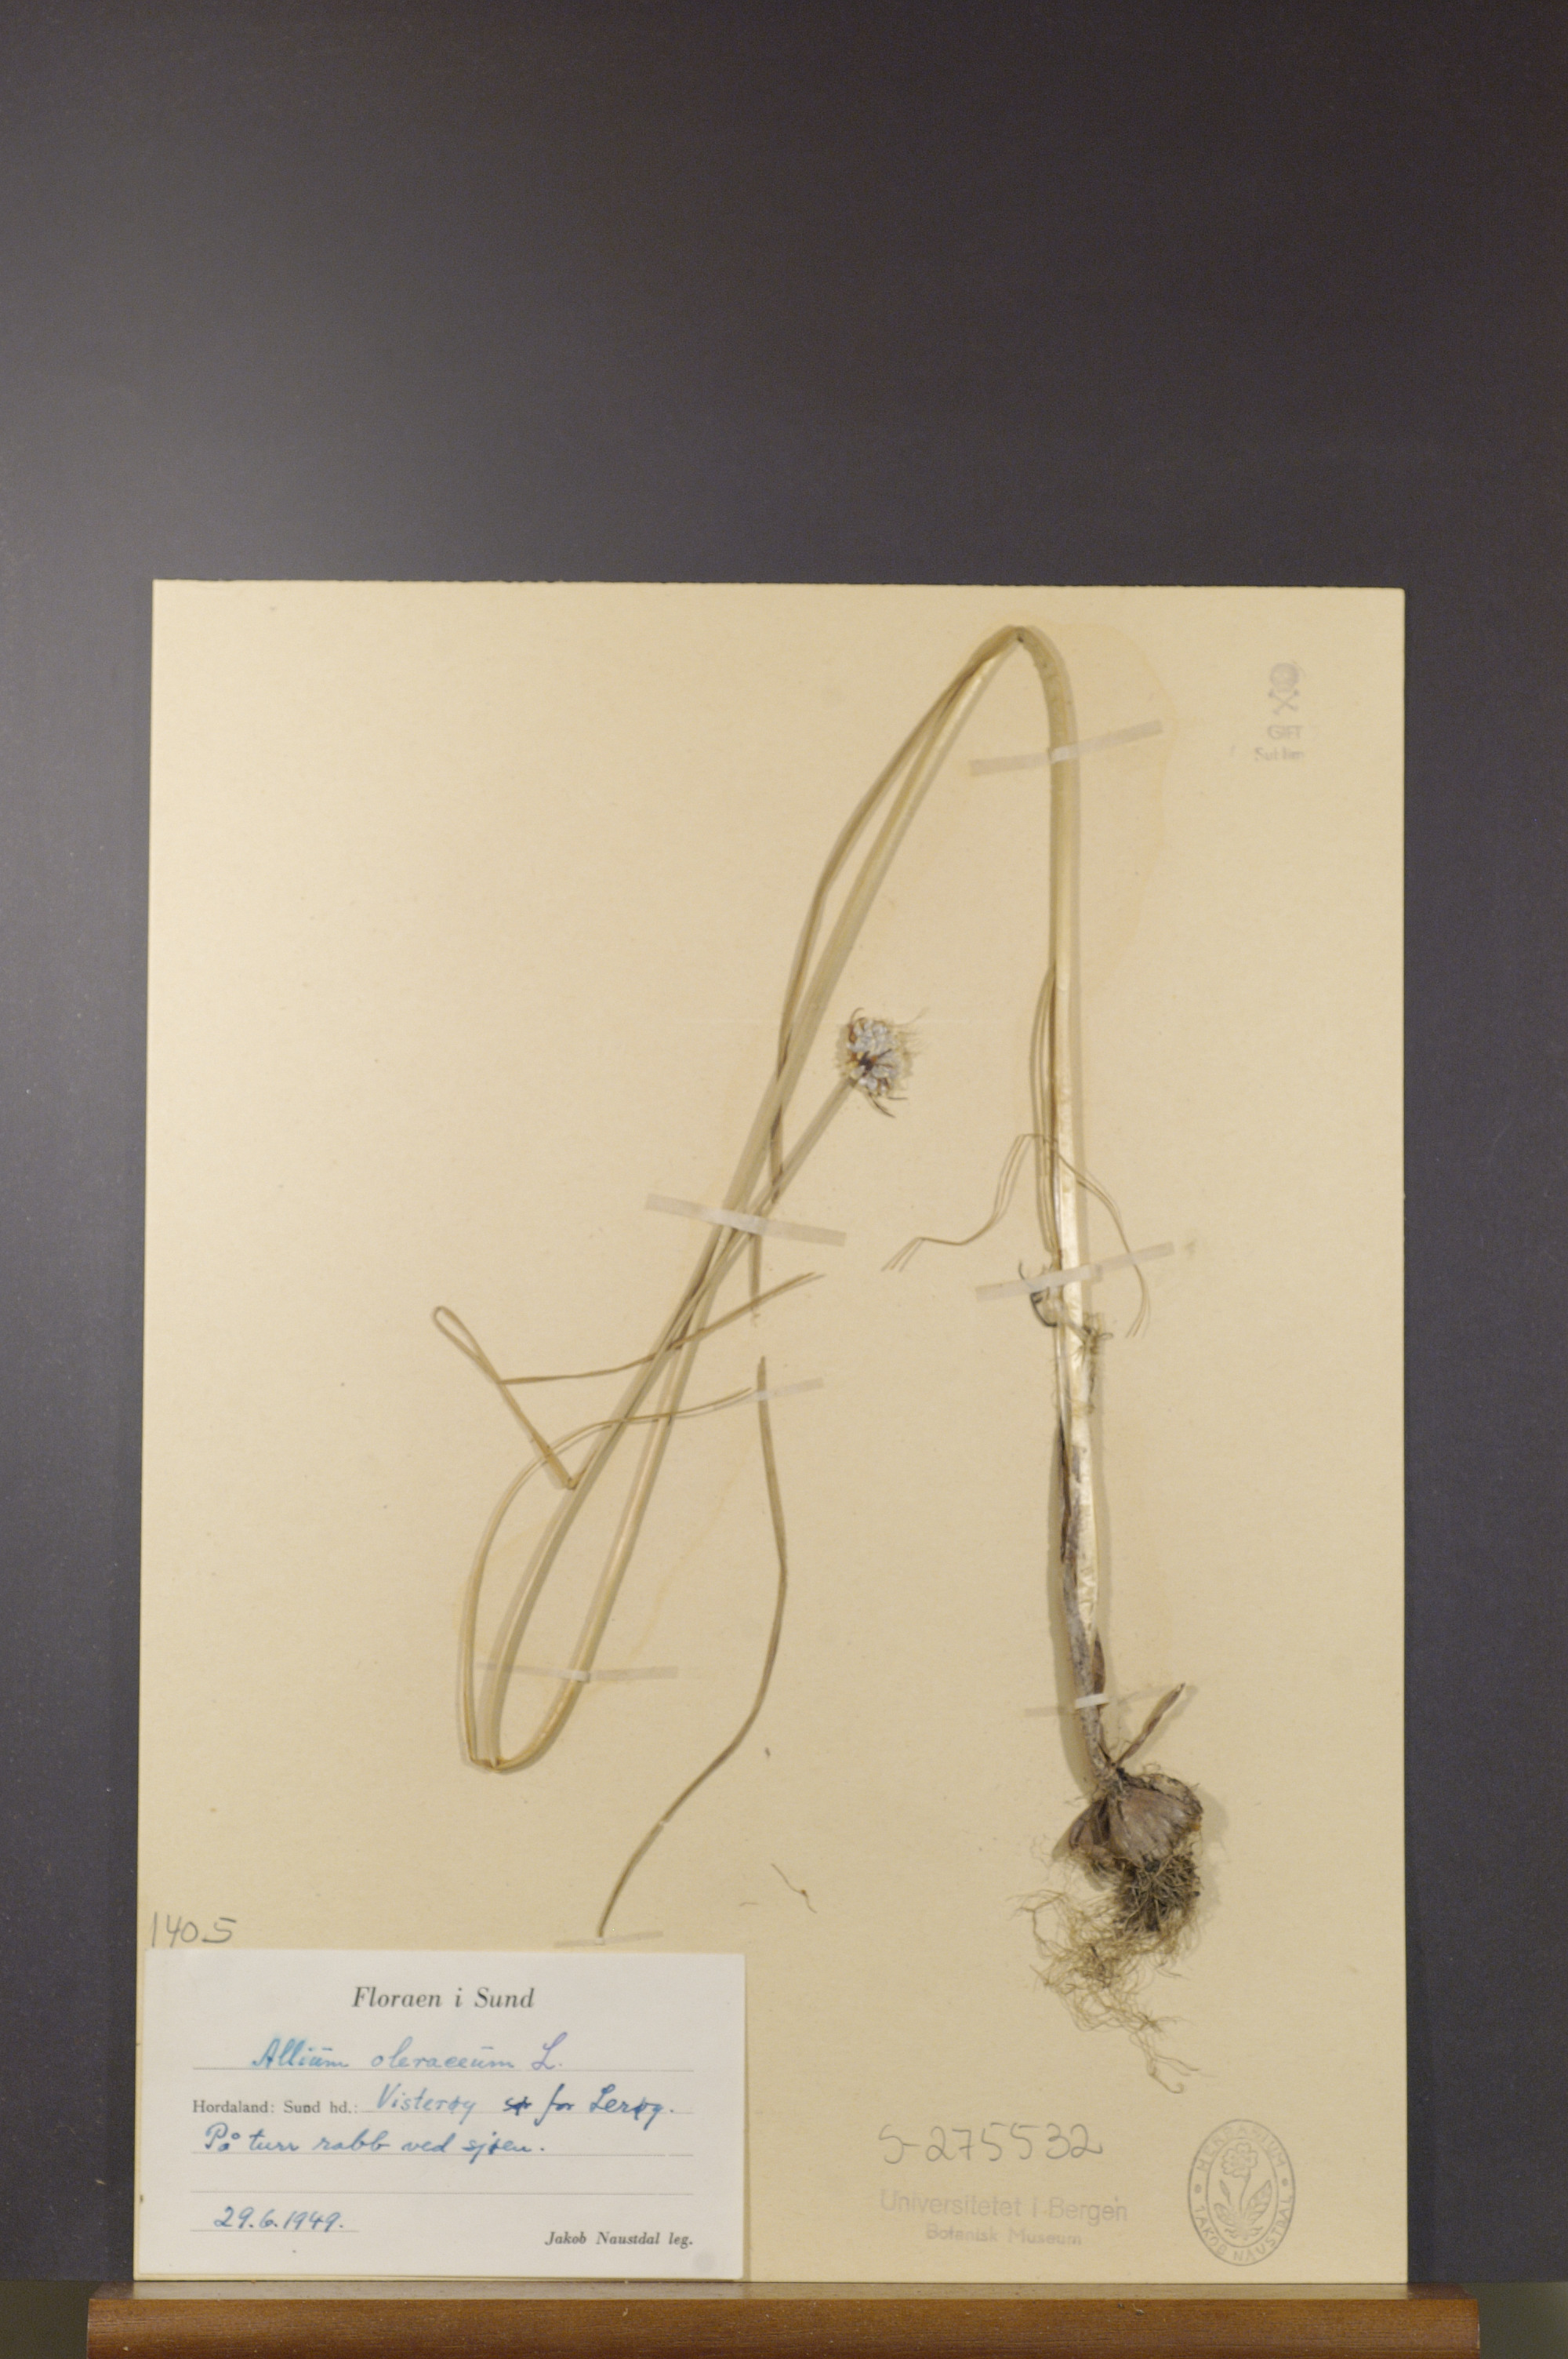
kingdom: Plantae
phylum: Tracheophyta
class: Liliopsida
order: Asparagales
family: Amaryllidaceae
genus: Allium
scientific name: Allium oleraceum
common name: Field garlic
